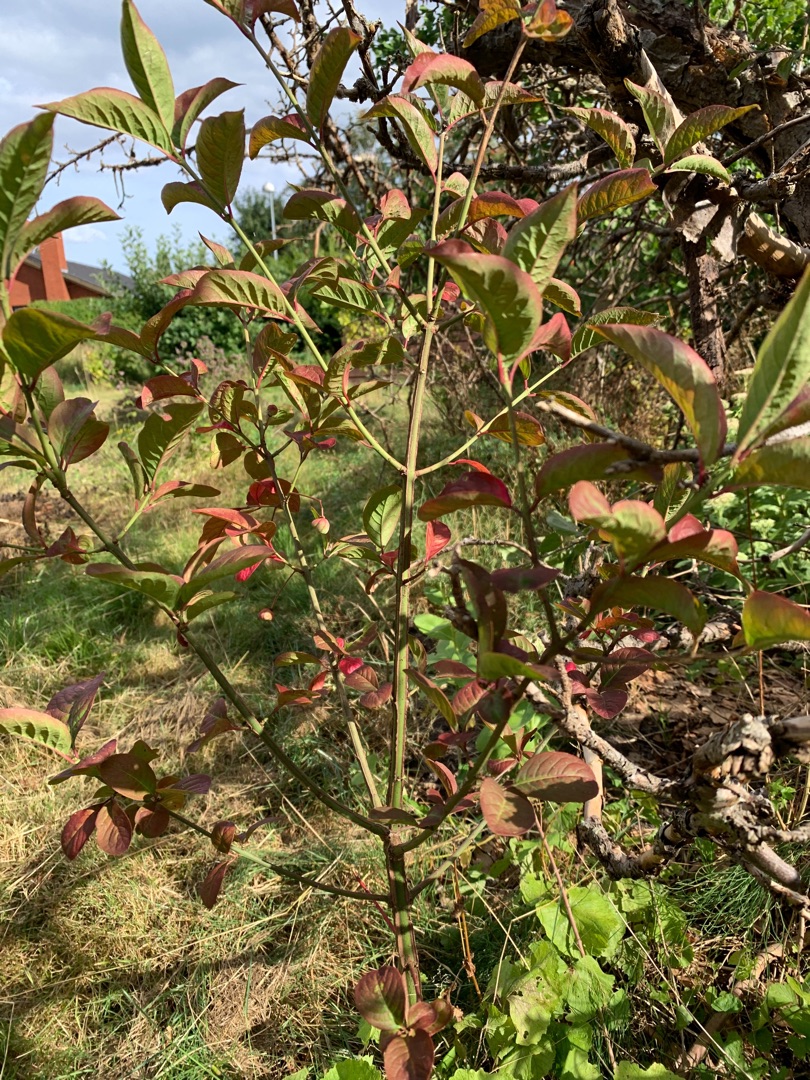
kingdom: Plantae
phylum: Tracheophyta
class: Magnoliopsida
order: Celastrales
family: Celastraceae
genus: Euonymus
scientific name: Euonymus europaeus
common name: Benved
